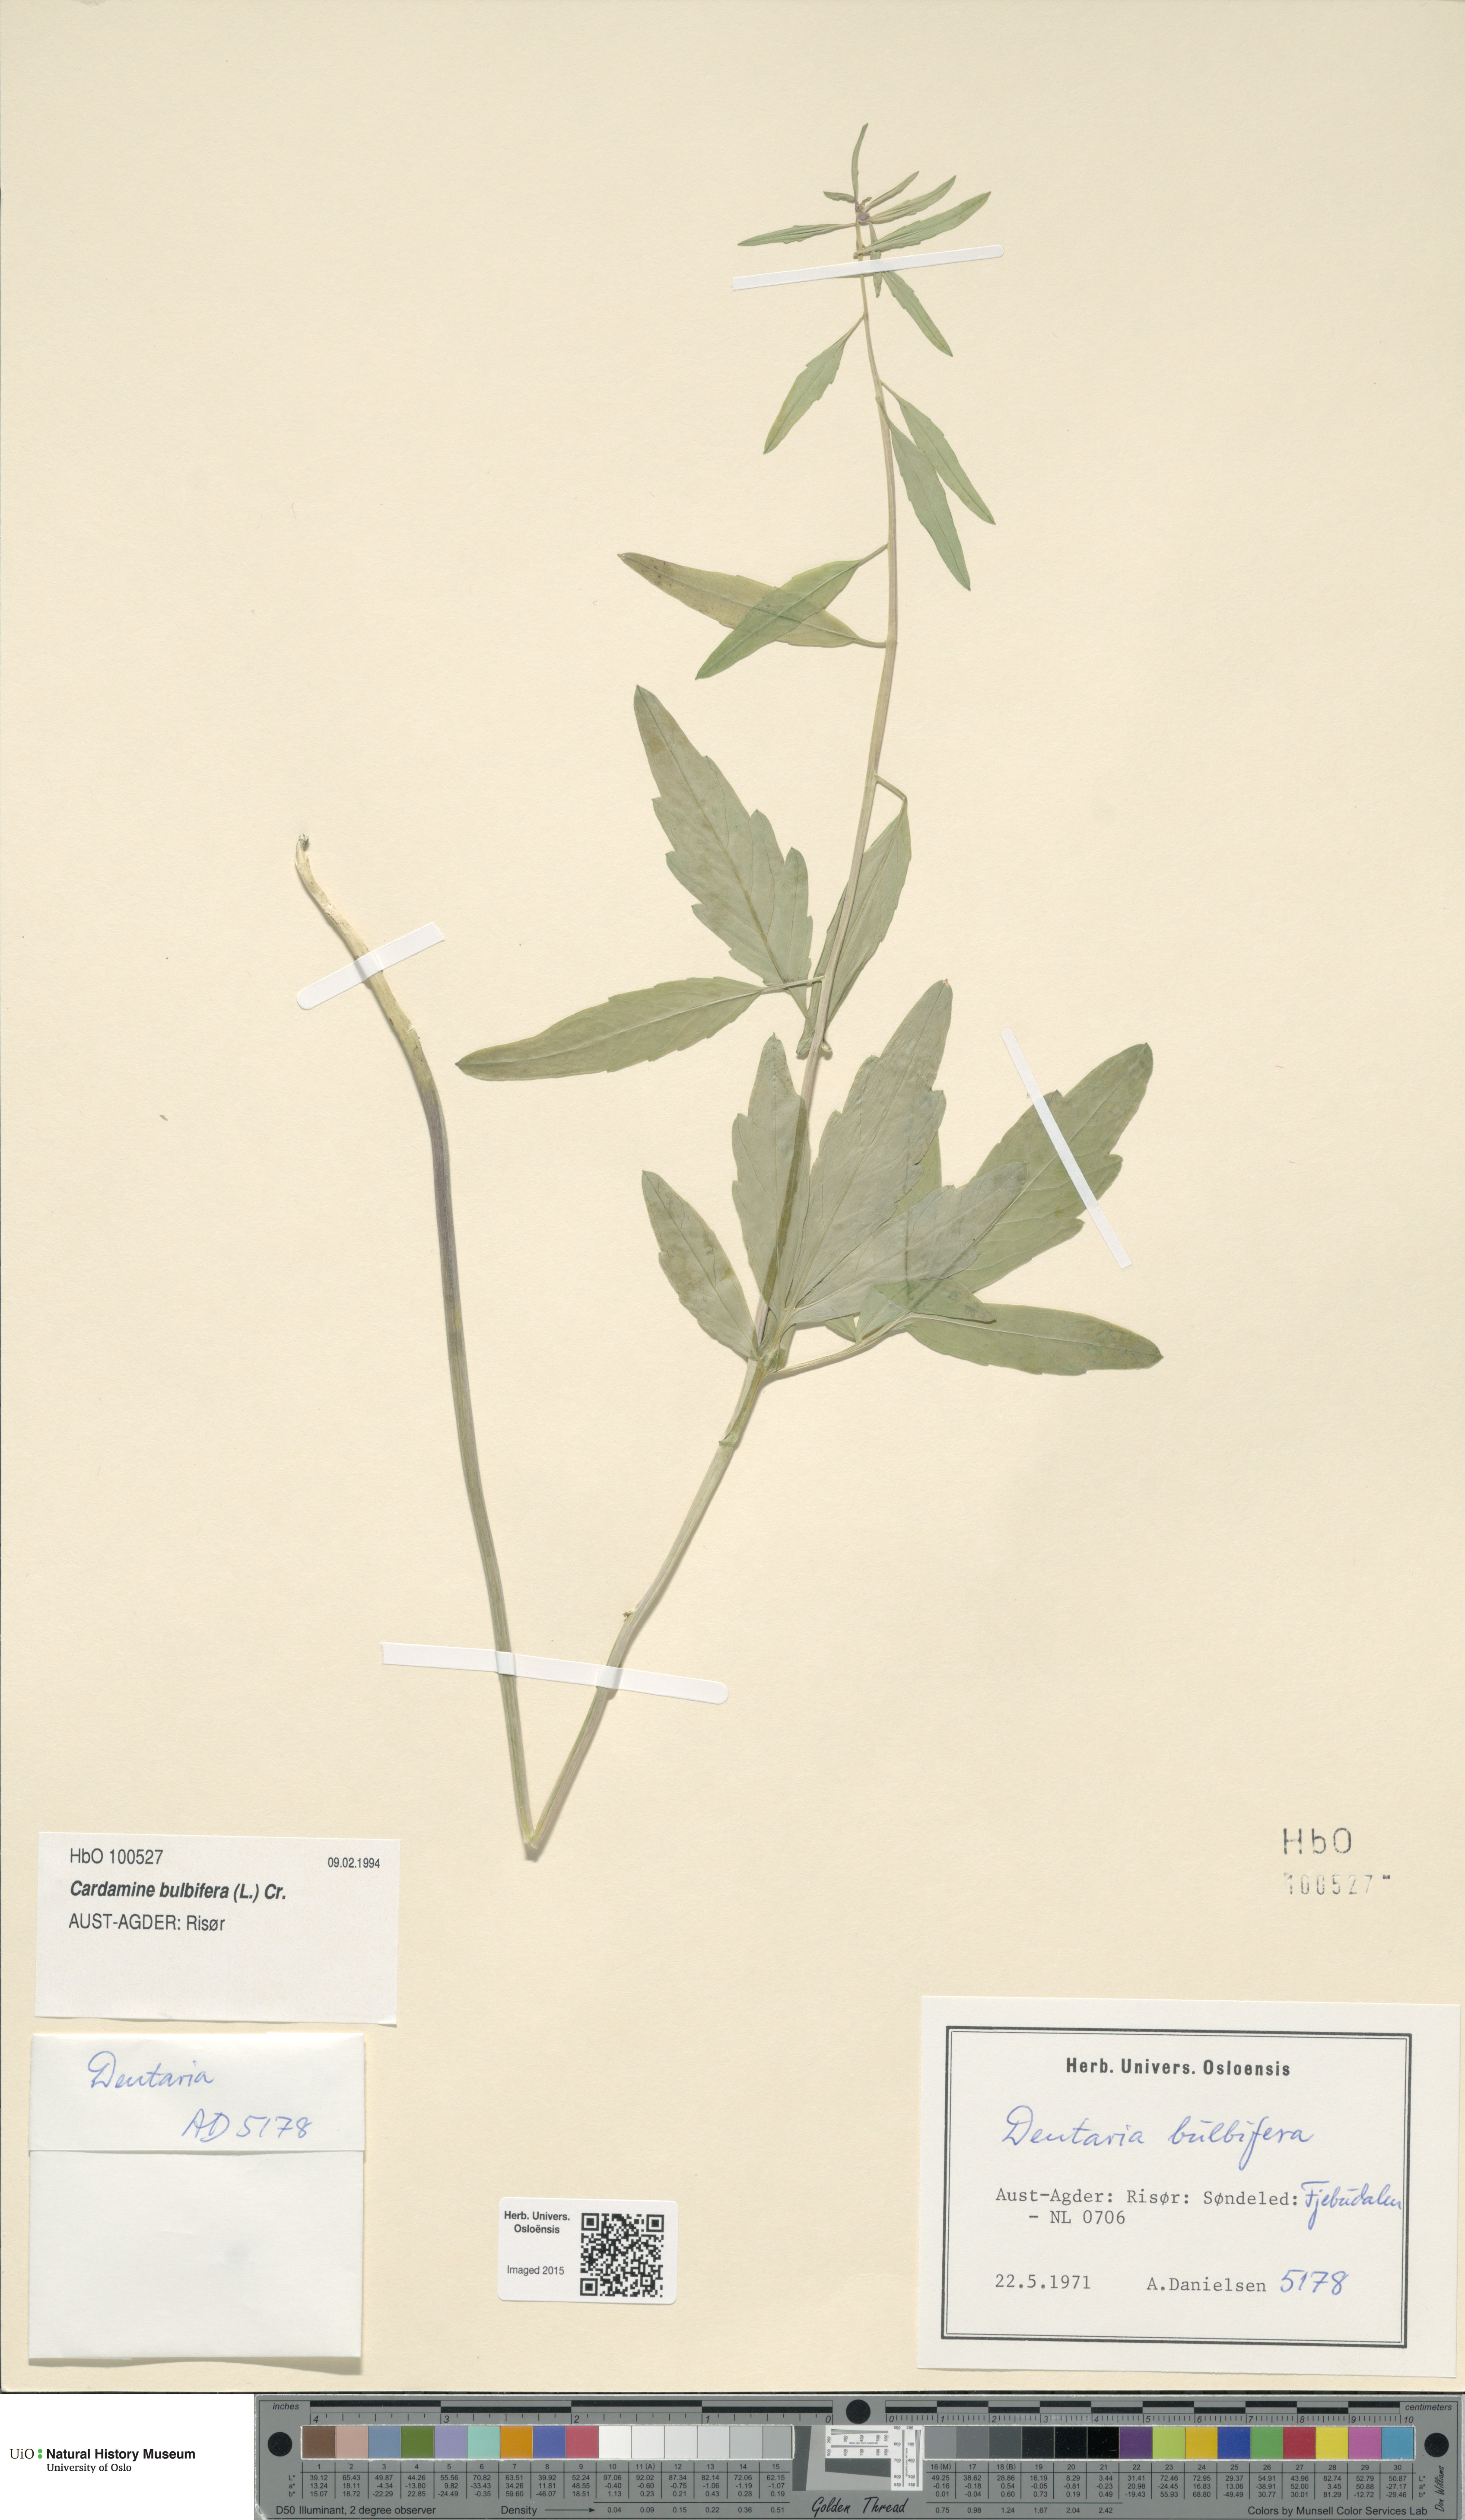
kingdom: Plantae
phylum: Tracheophyta
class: Magnoliopsida
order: Brassicales
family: Brassicaceae
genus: Cardamine
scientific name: Cardamine bulbifera
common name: Coralroot bittercress
